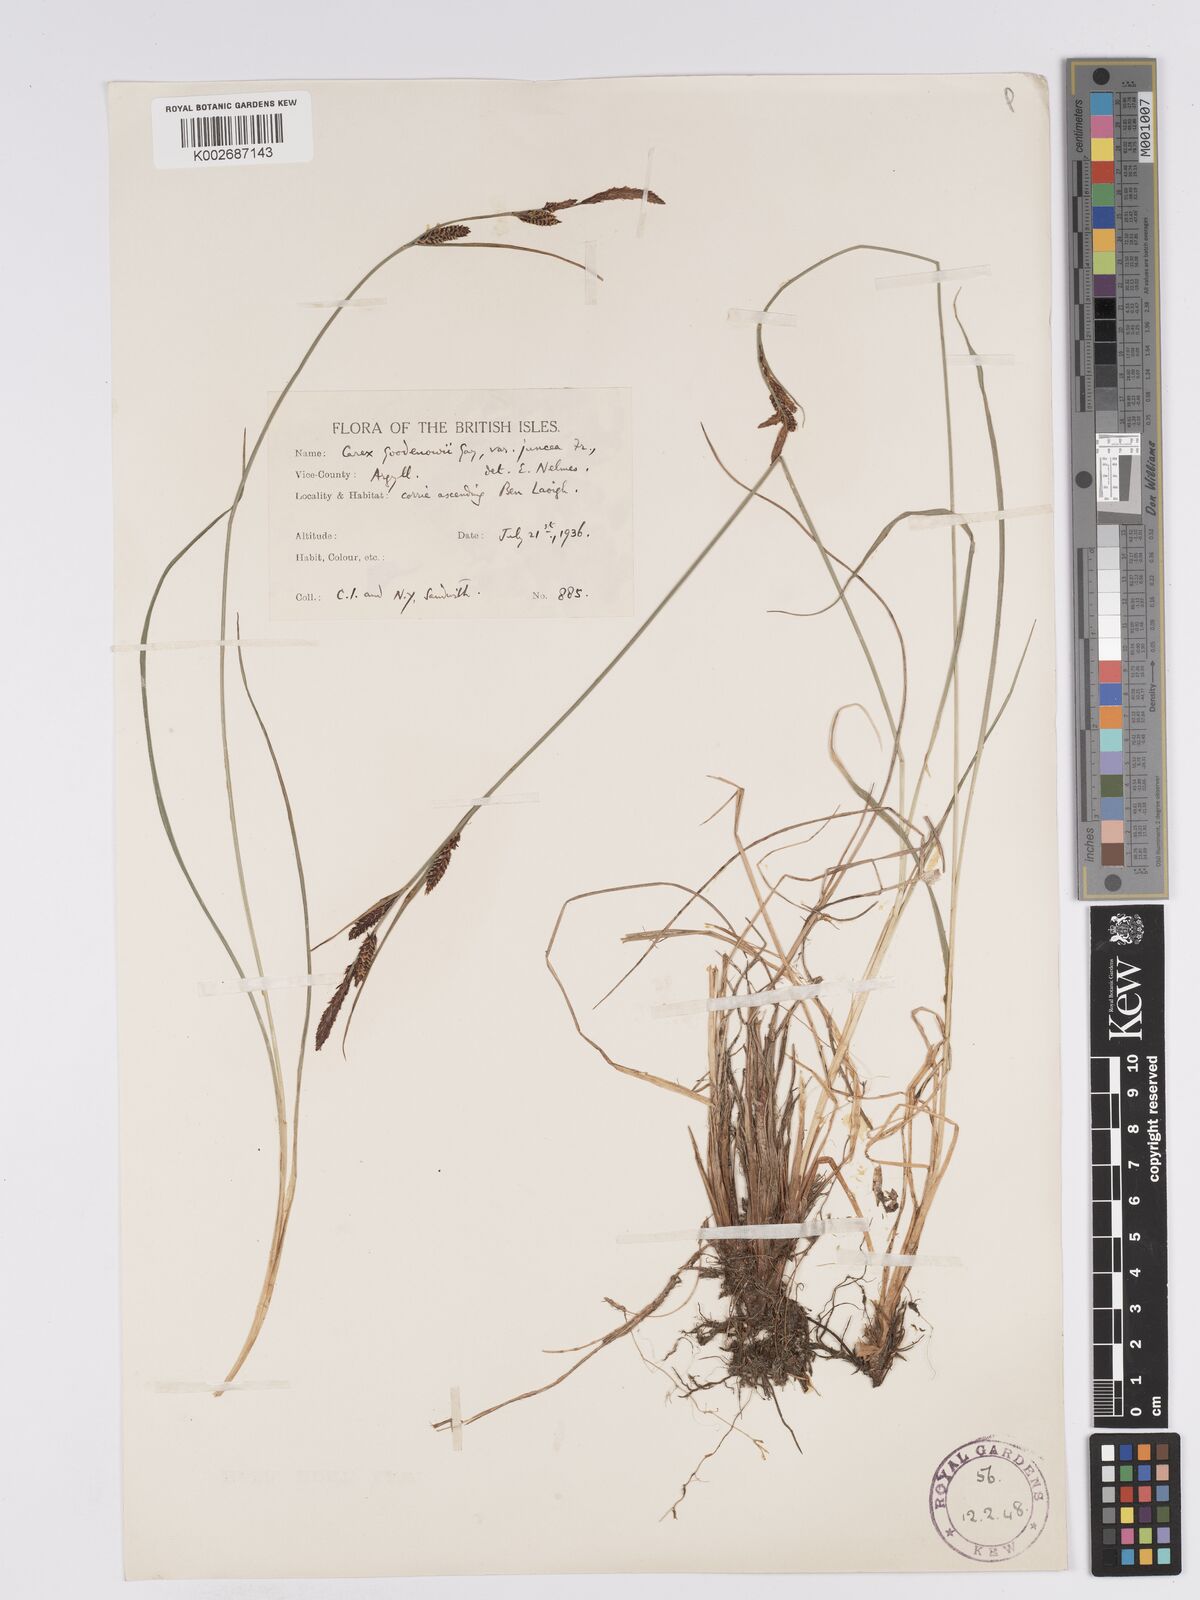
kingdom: Plantae
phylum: Tracheophyta
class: Liliopsida
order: Poales
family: Cyperaceae
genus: Carex
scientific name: Carex nigra
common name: Common sedge
